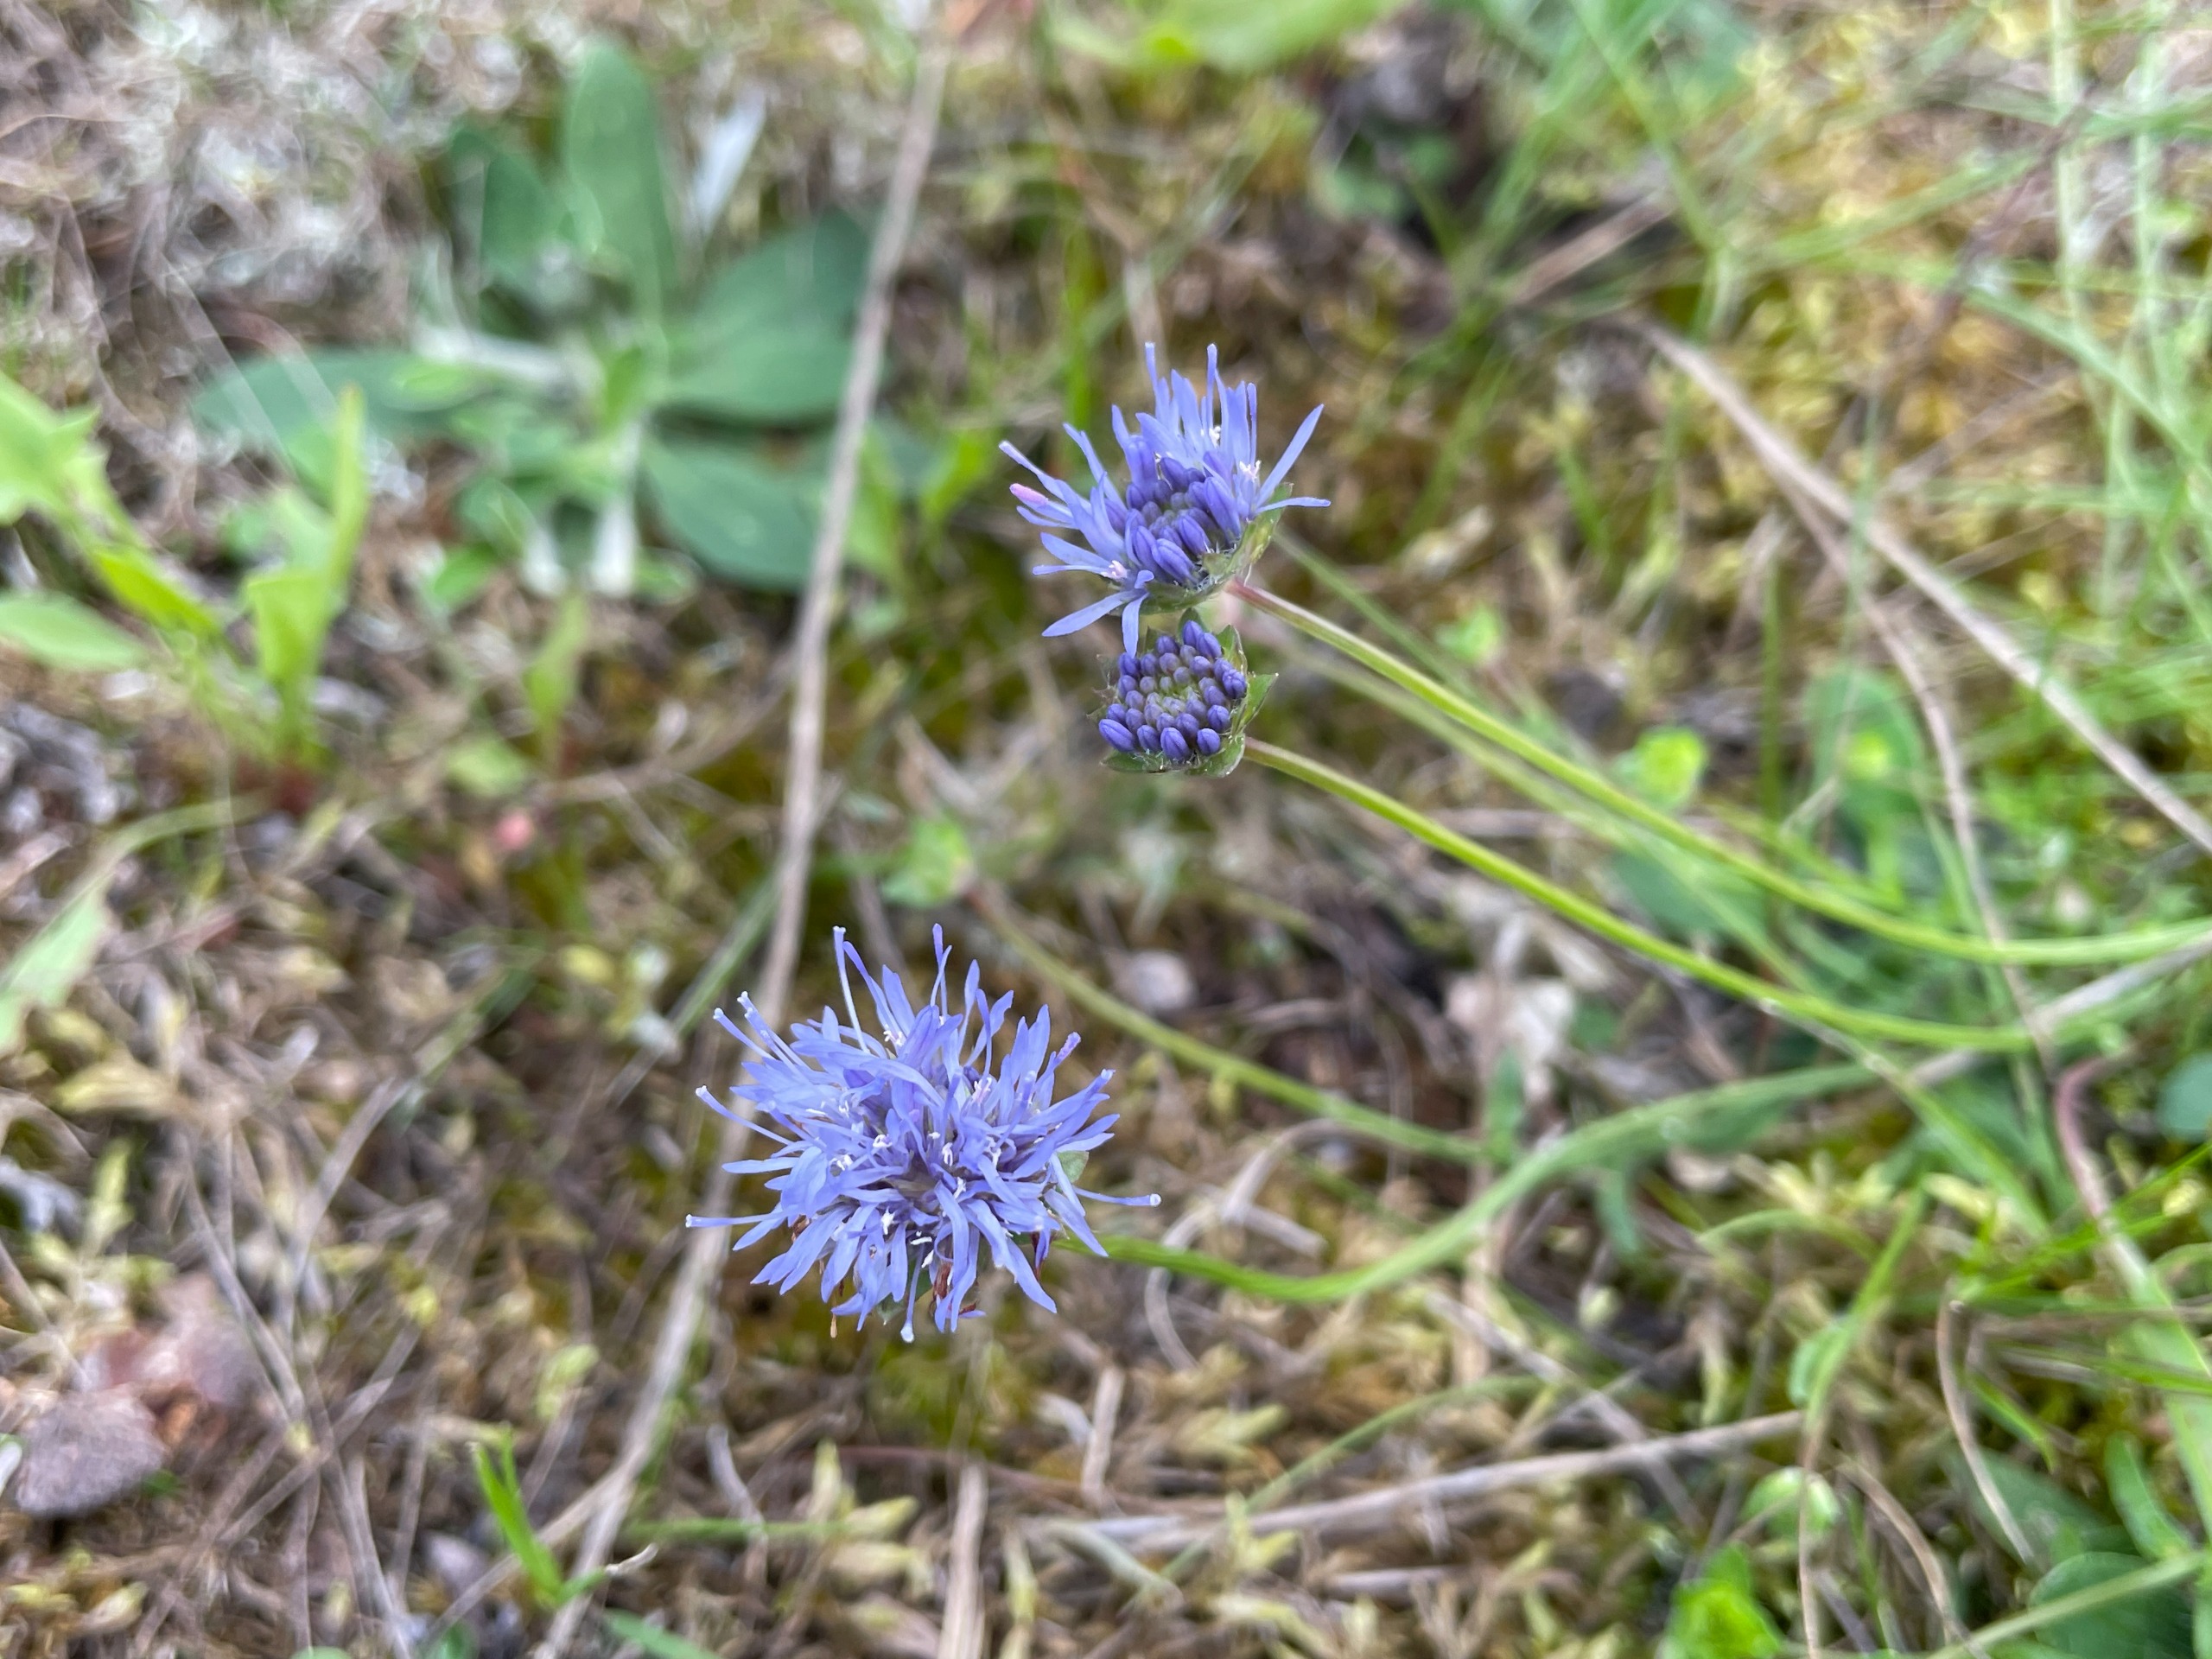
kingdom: Plantae
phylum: Tracheophyta
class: Magnoliopsida
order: Asterales
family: Campanulaceae
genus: Jasione
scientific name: Jasione montana
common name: Blåmunke
